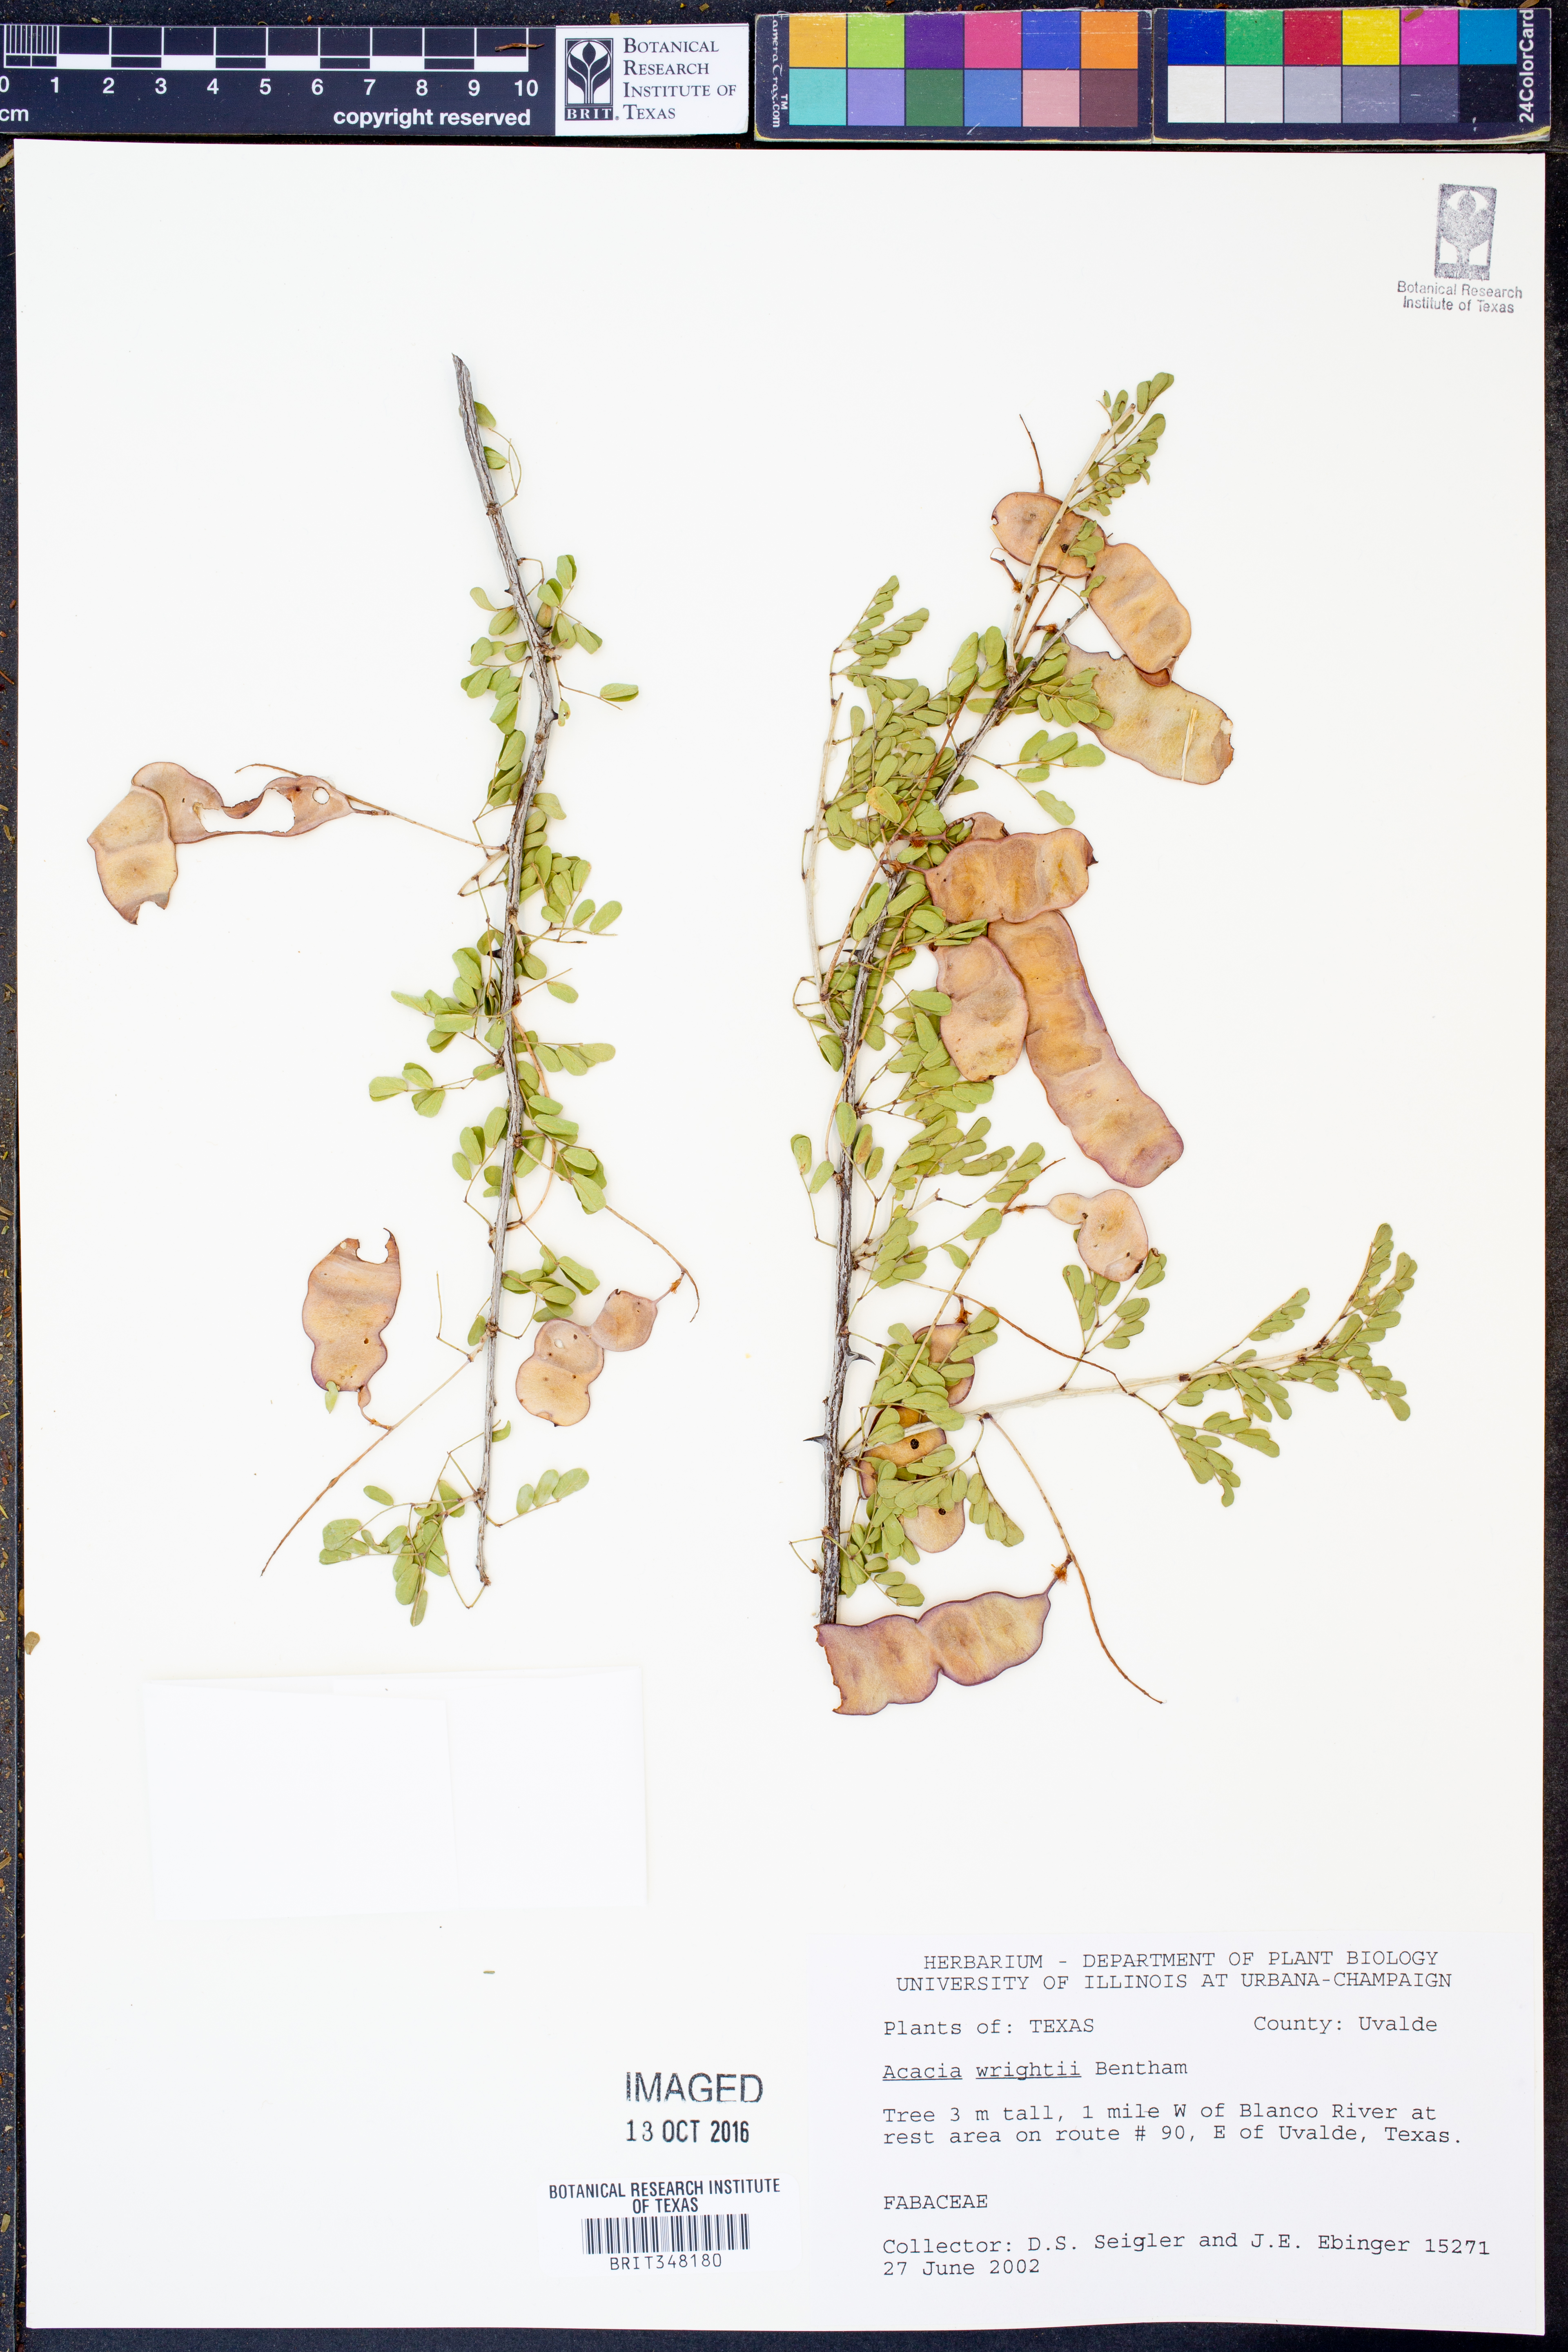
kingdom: Plantae
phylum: Tracheophyta
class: Magnoliopsida
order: Fabales
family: Fabaceae
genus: Senegalia
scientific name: Senegalia wrightii
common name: Texas cat's-claw
